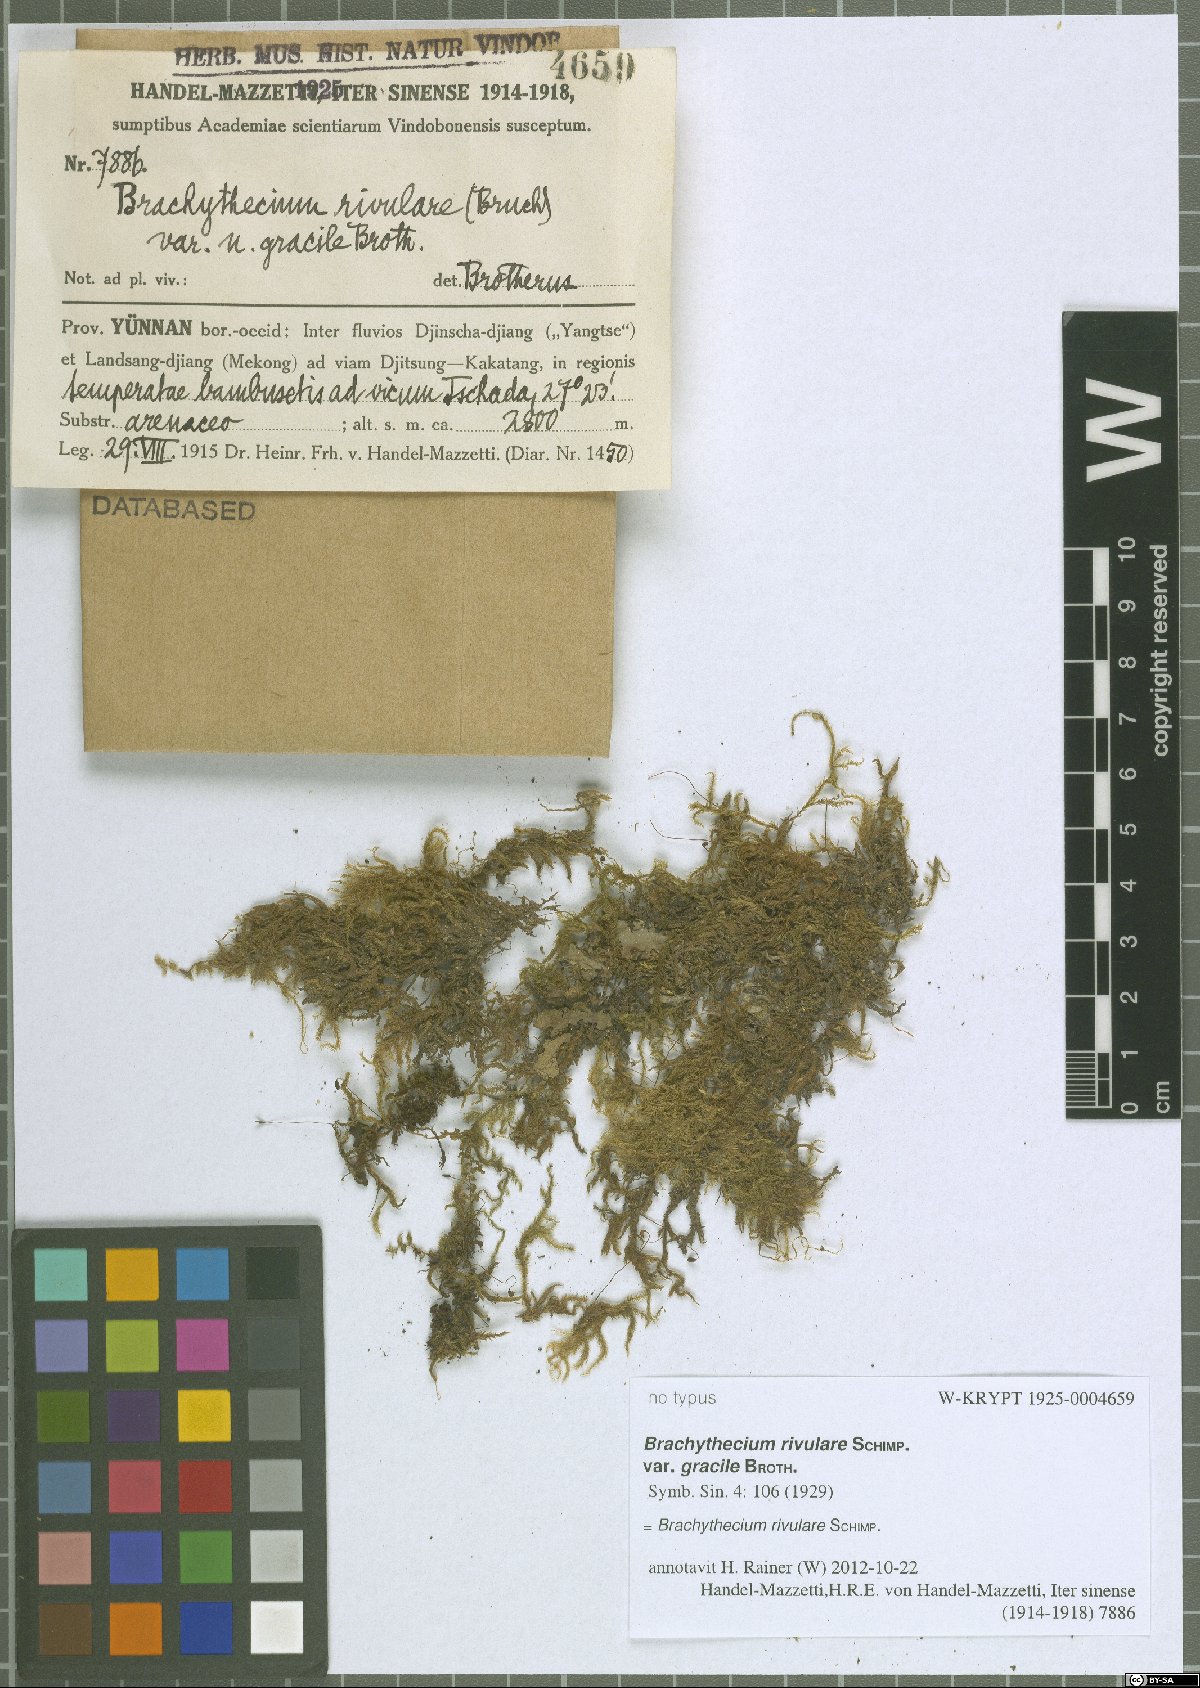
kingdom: Plantae
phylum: Bryophyta
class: Bryopsida
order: Hypnales
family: Brachytheciaceae
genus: Brachythecium
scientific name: Brachythecium rivulare
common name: River ragged moss
